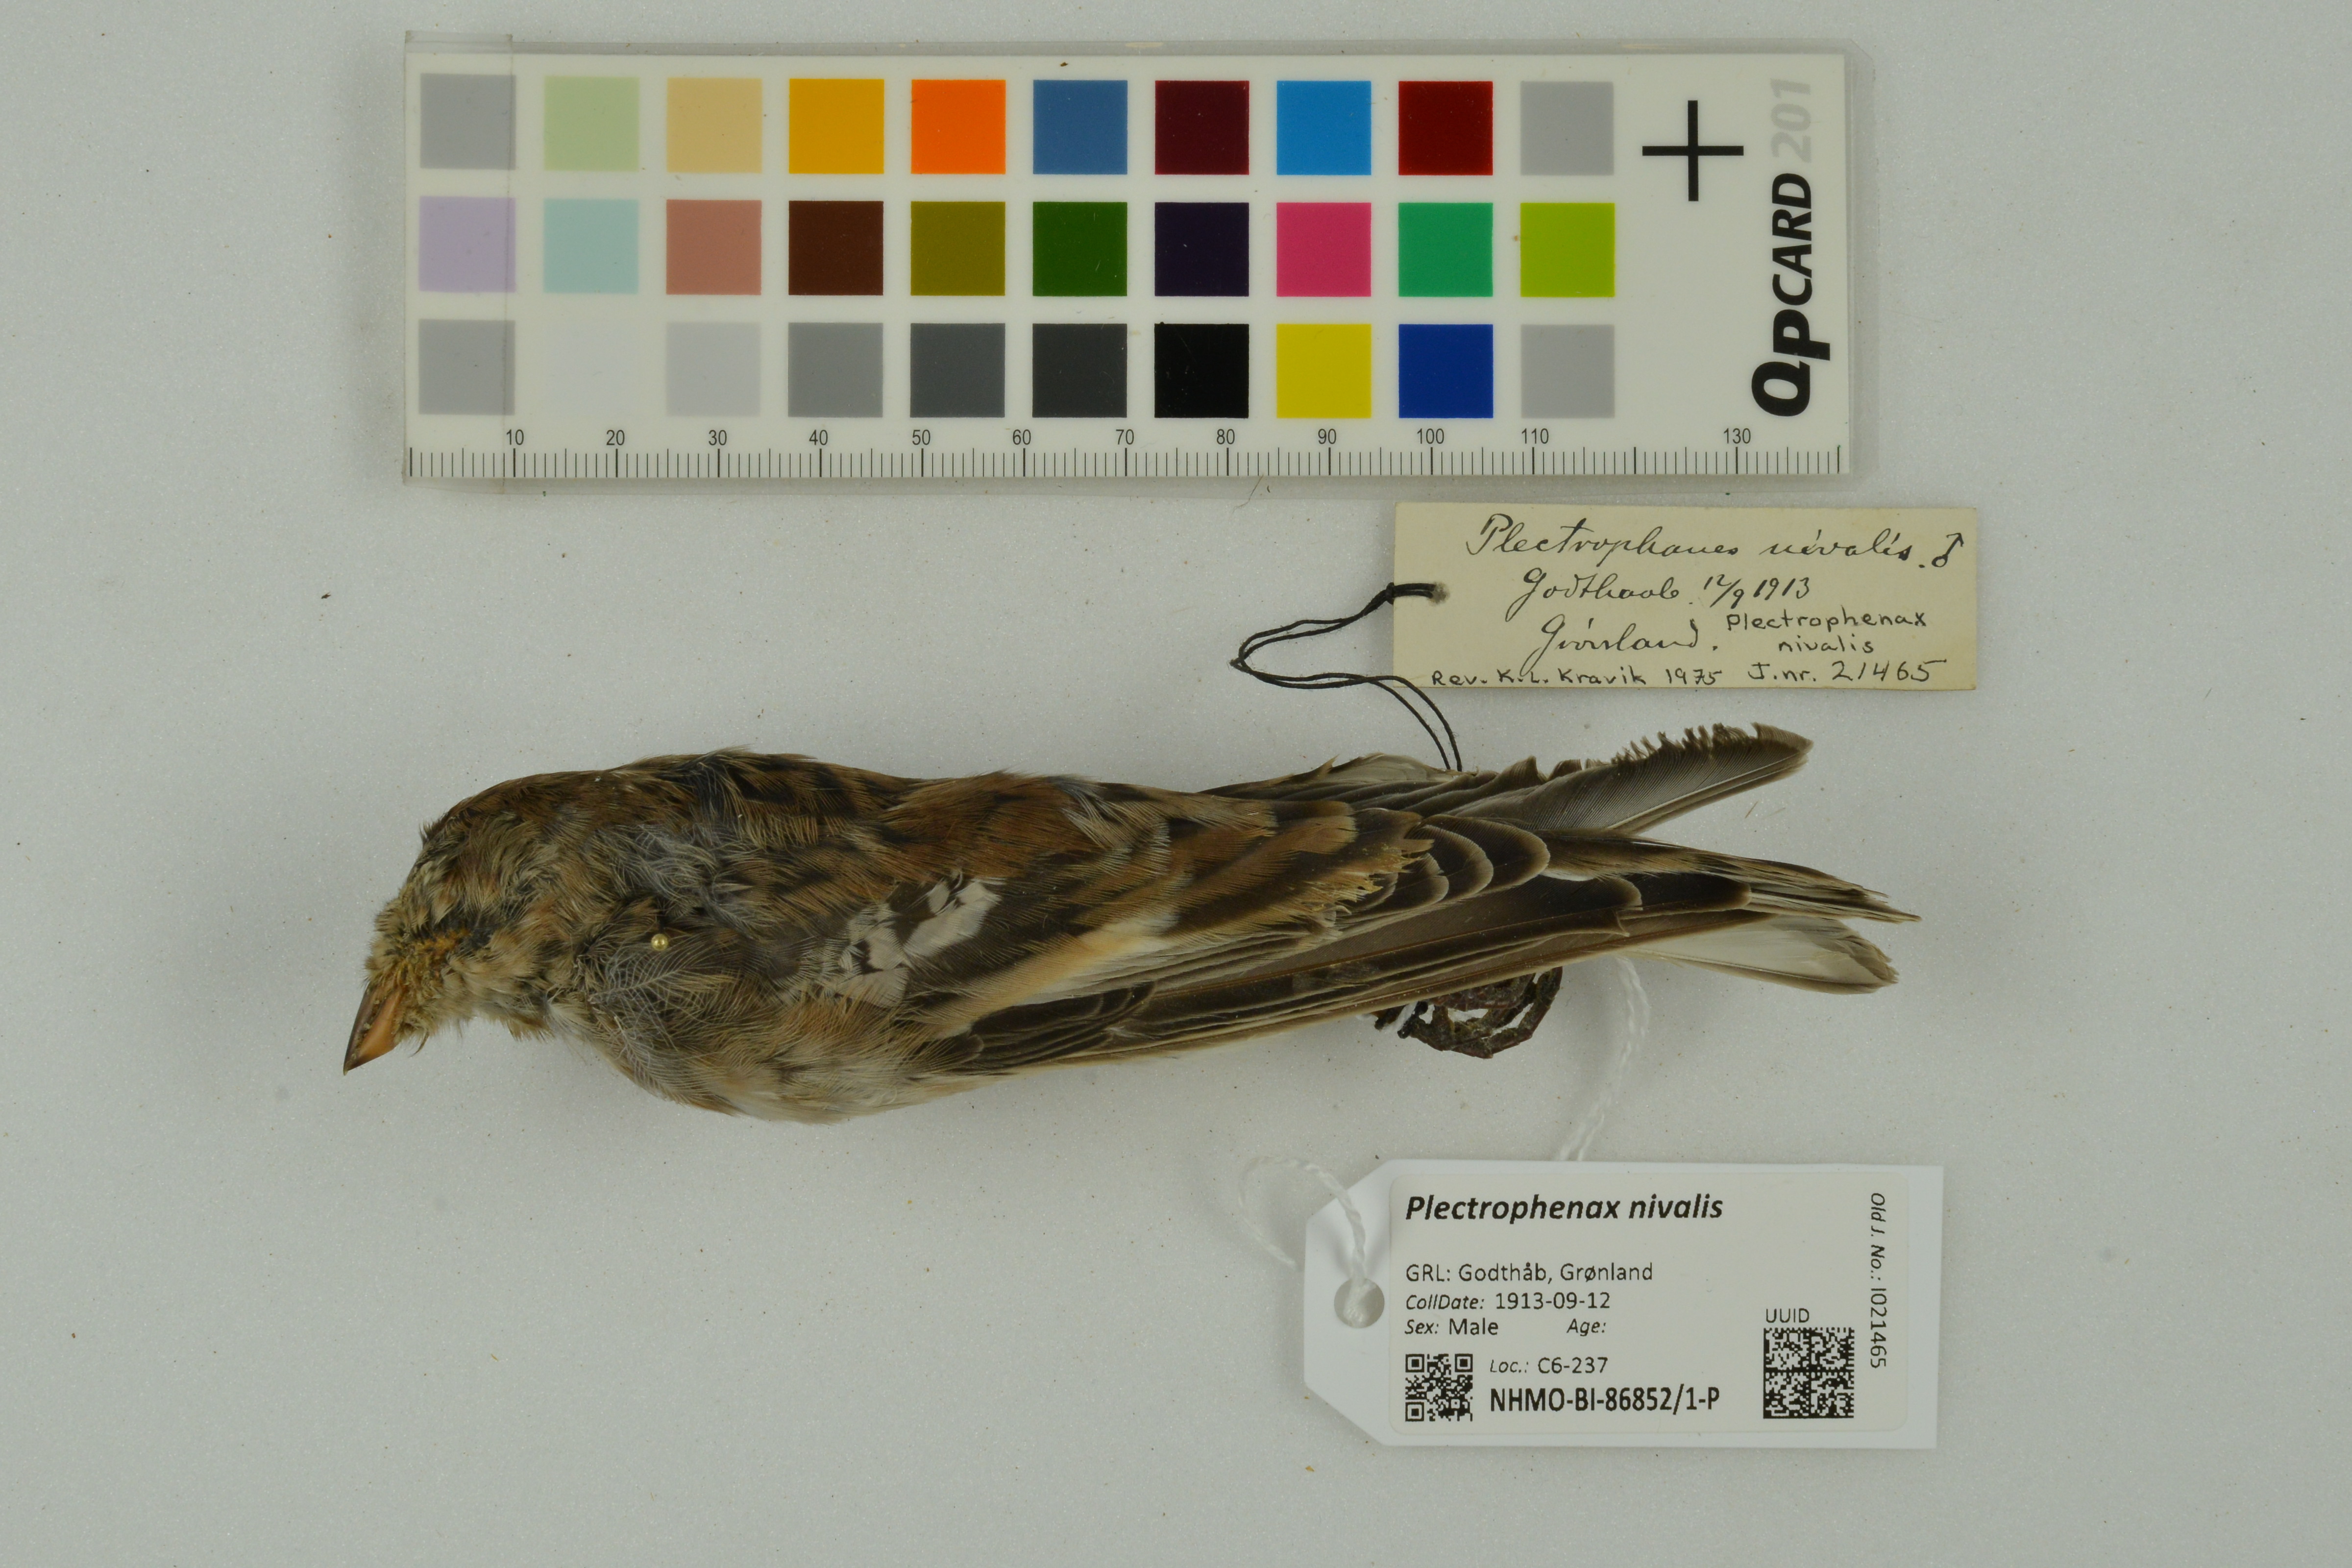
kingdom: Animalia
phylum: Chordata
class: Aves
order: Passeriformes
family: Calcariidae
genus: Plectrophenax
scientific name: Plectrophenax nivalis
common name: Snow bunting
